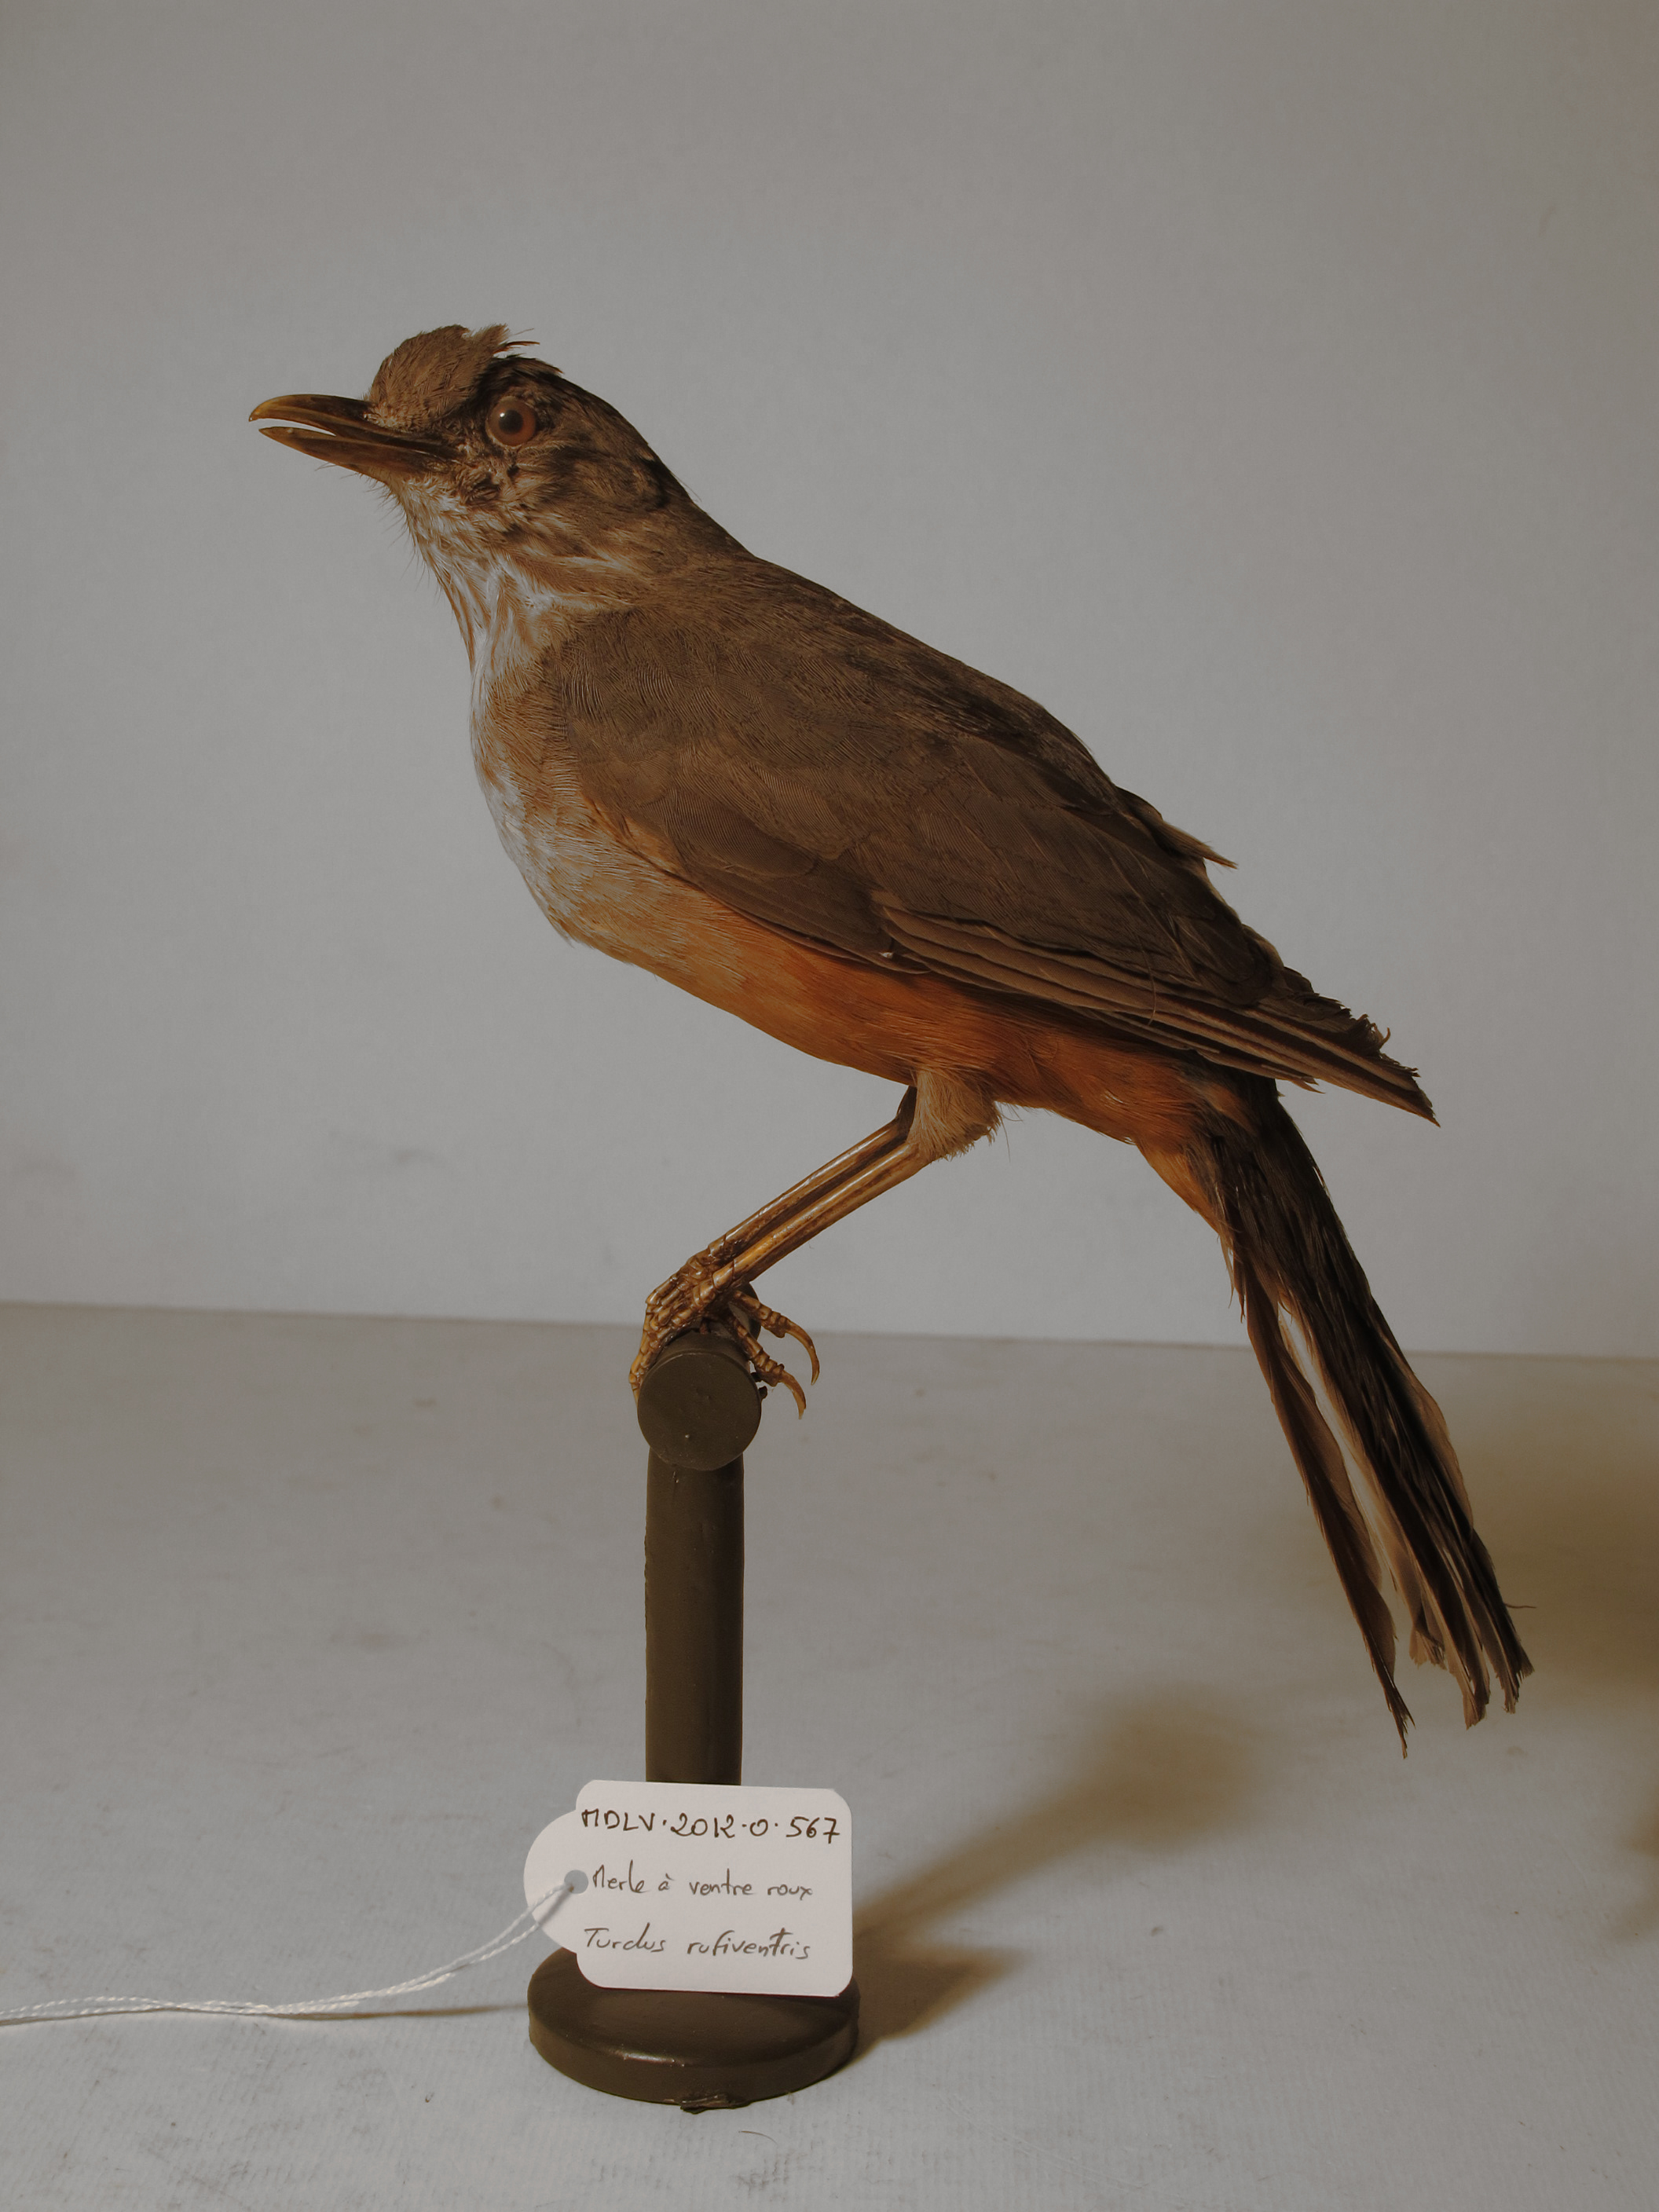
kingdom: Animalia
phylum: Chordata
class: Aves
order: Passeriformes
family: Turdidae
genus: Turdus
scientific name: Turdus rufiventris
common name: Rufous-bellied Thrush
